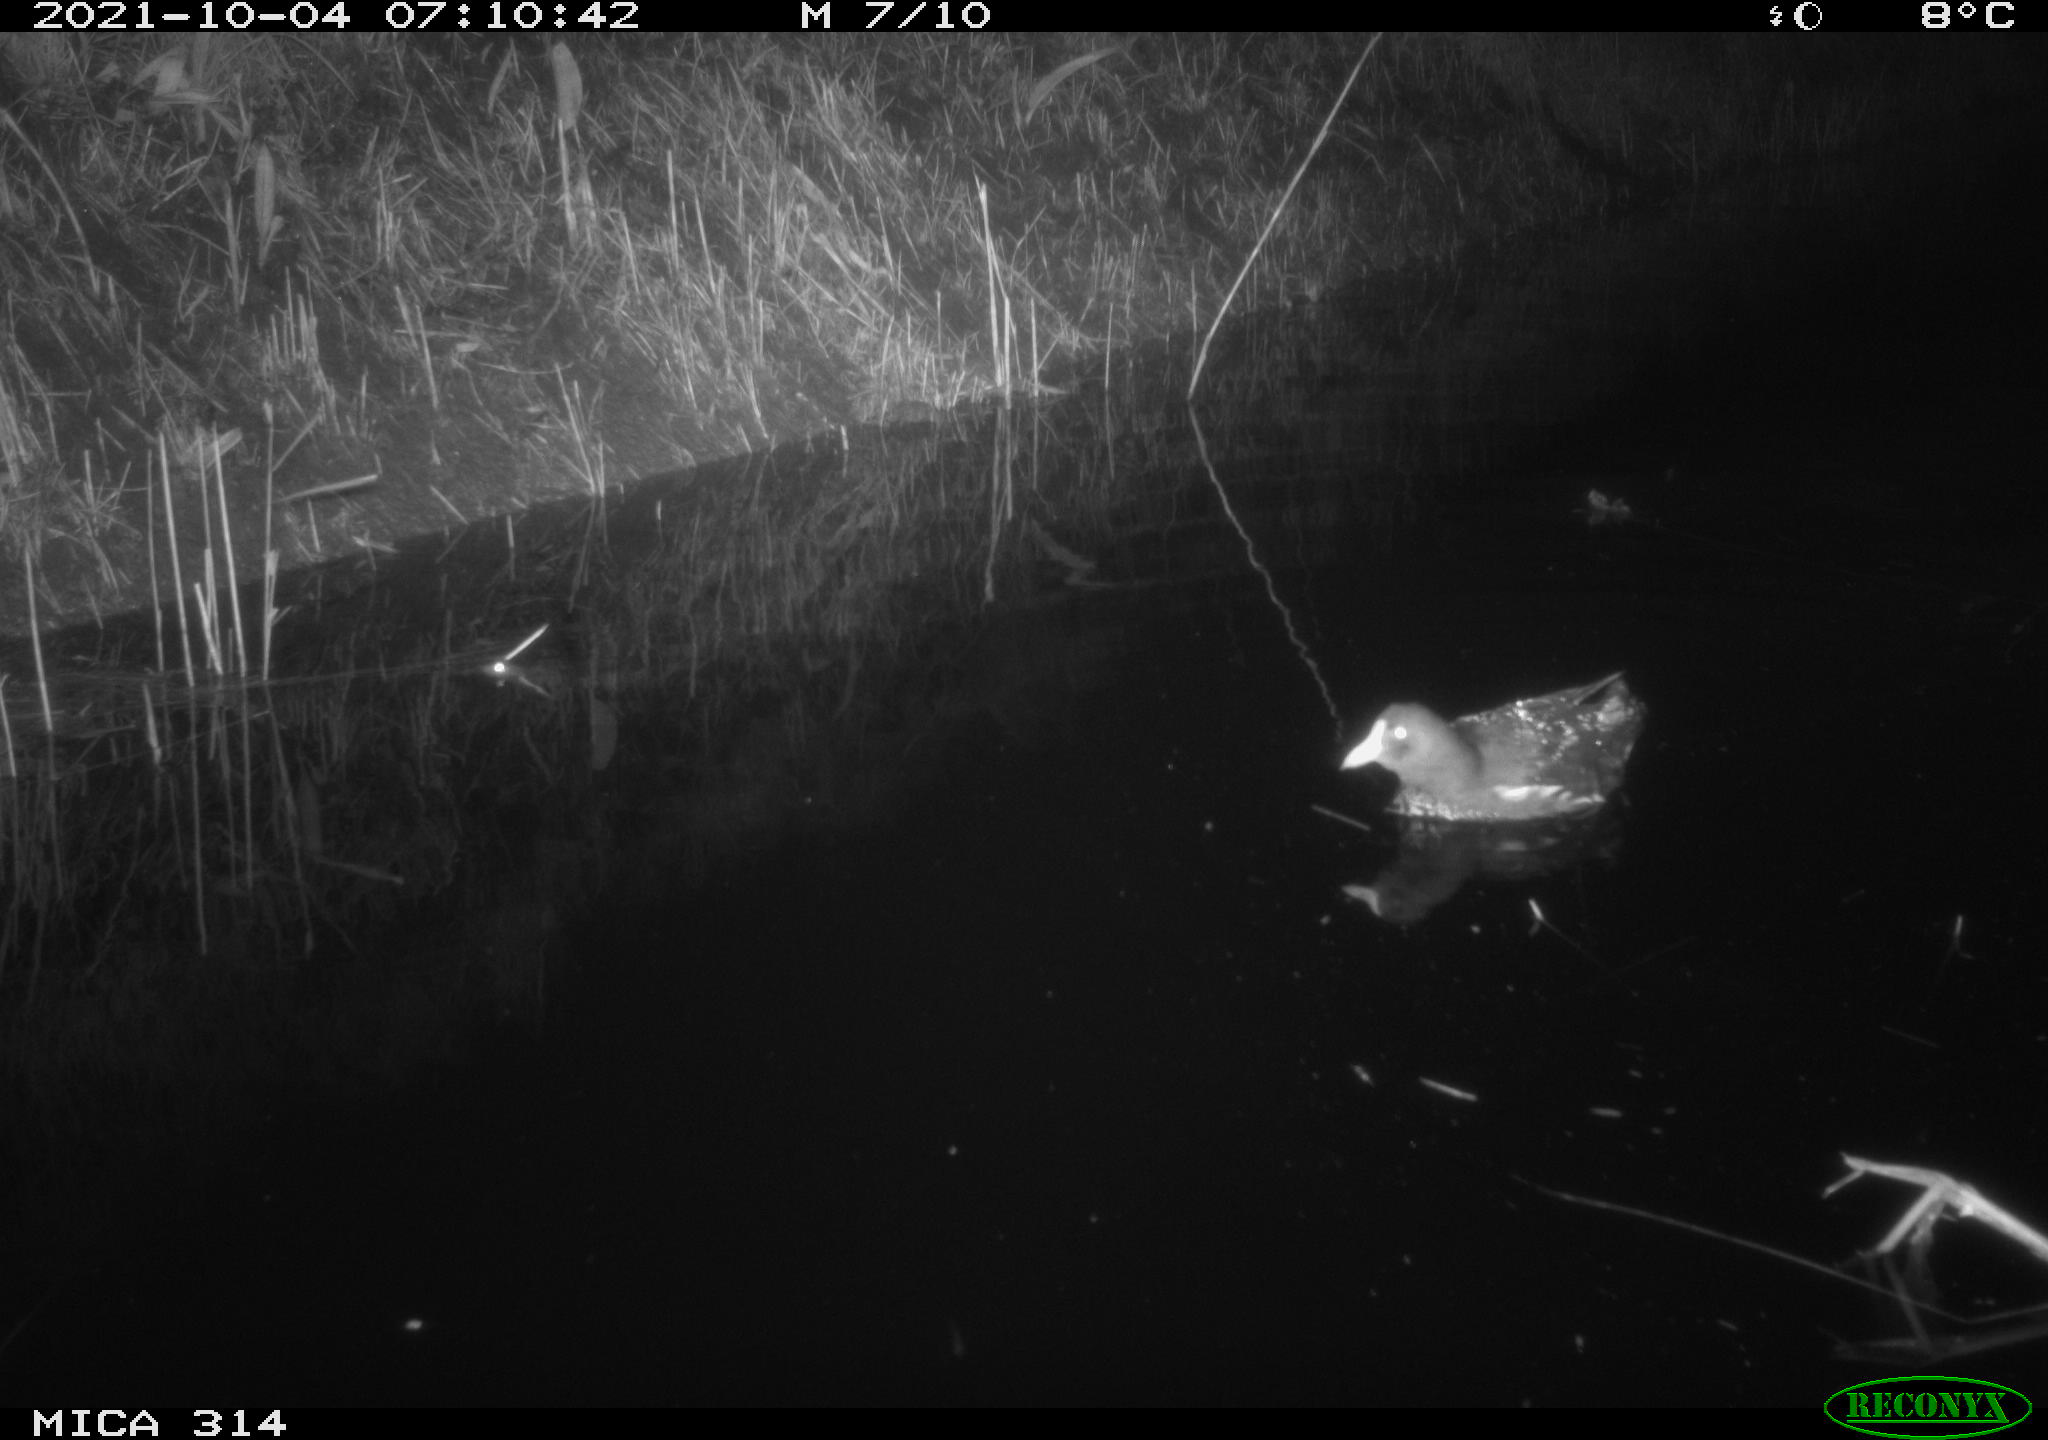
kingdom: Animalia
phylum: Chordata
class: Aves
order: Gruiformes
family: Rallidae
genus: Gallinula
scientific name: Gallinula chloropus
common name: Common moorhen
